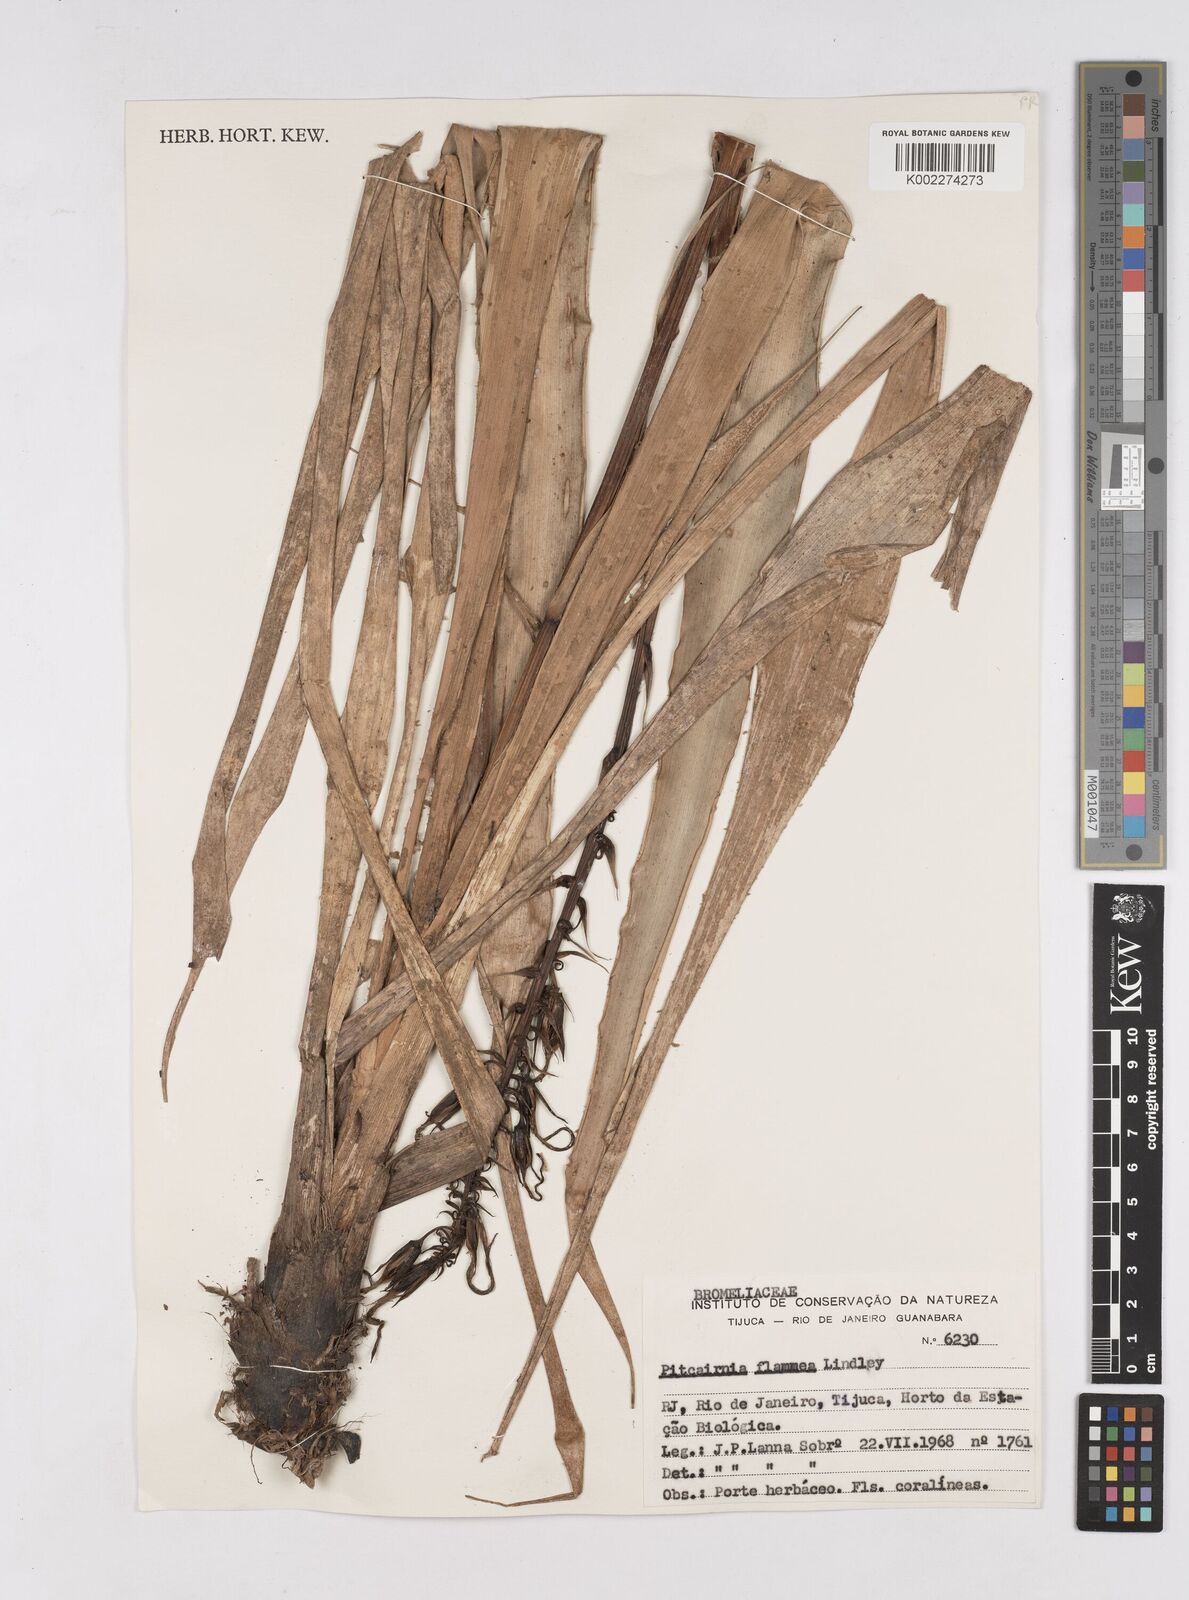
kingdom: Plantae
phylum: Tracheophyta
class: Liliopsida
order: Poales
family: Bromeliaceae
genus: Pitcairnia
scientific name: Pitcairnia flammea
